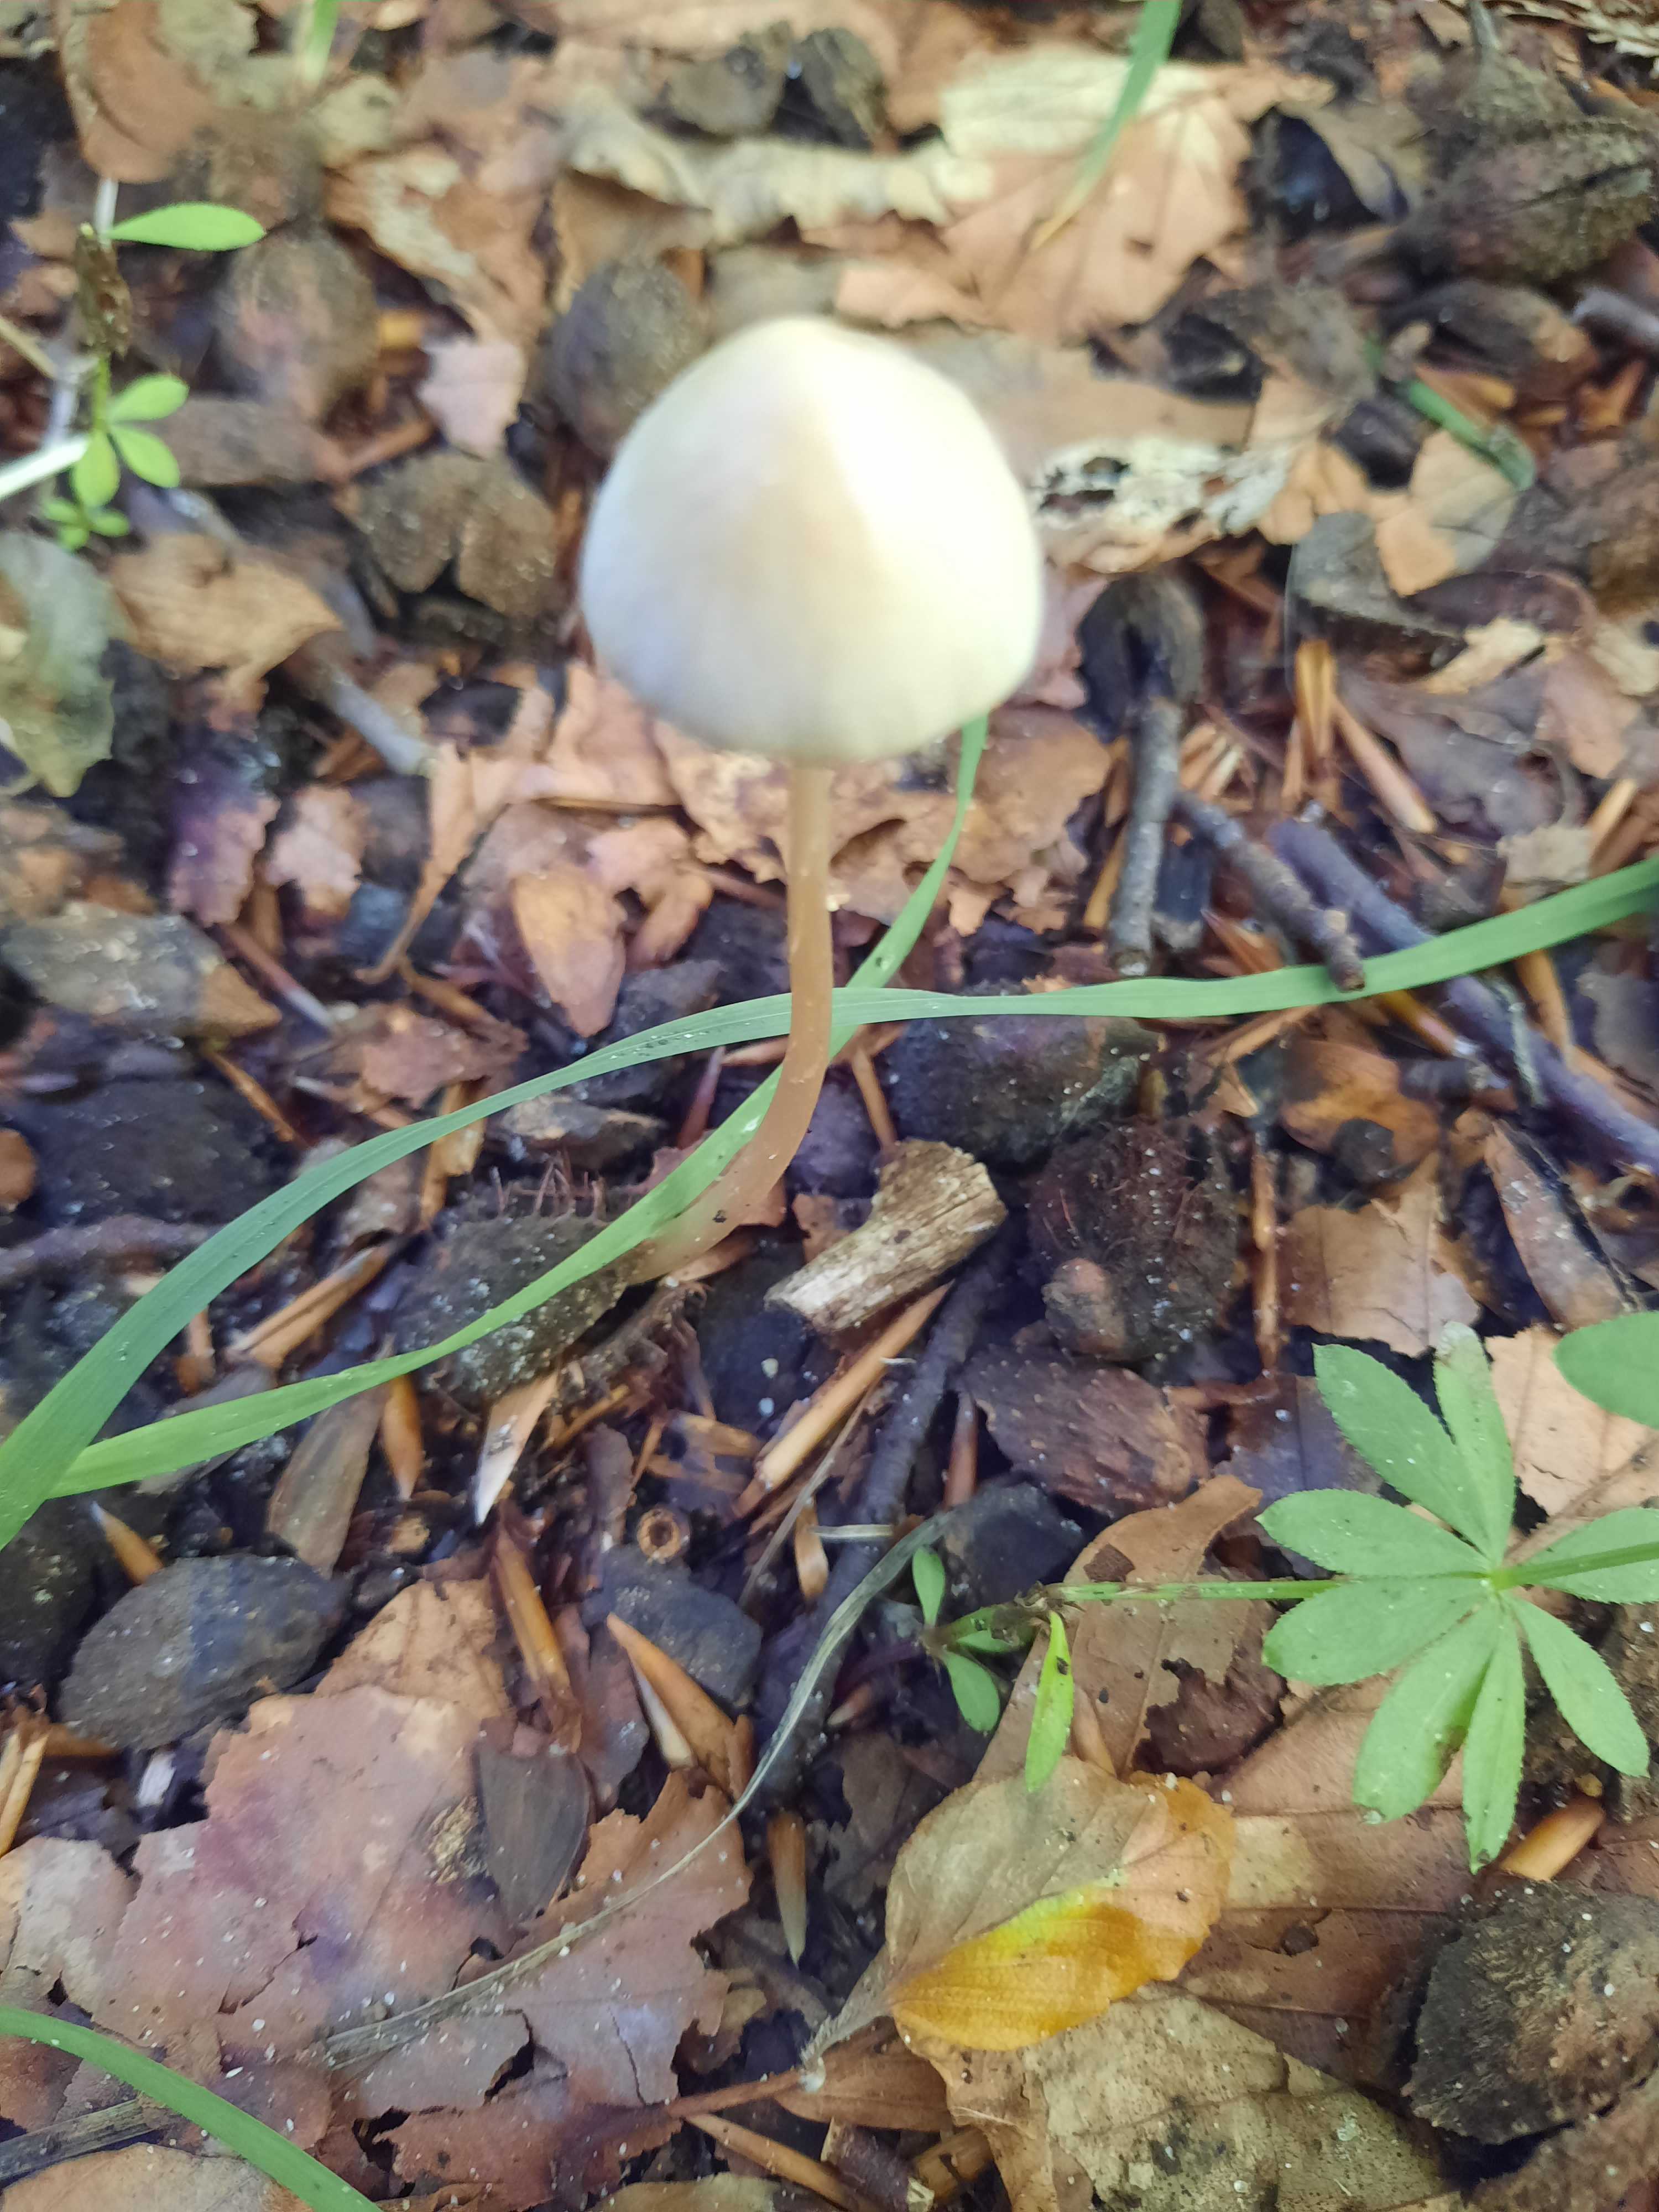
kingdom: Fungi
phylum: Basidiomycota
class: Agaricomycetes
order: Agaricales
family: Psathyrellaceae
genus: Psathyrella
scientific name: Psathyrella
